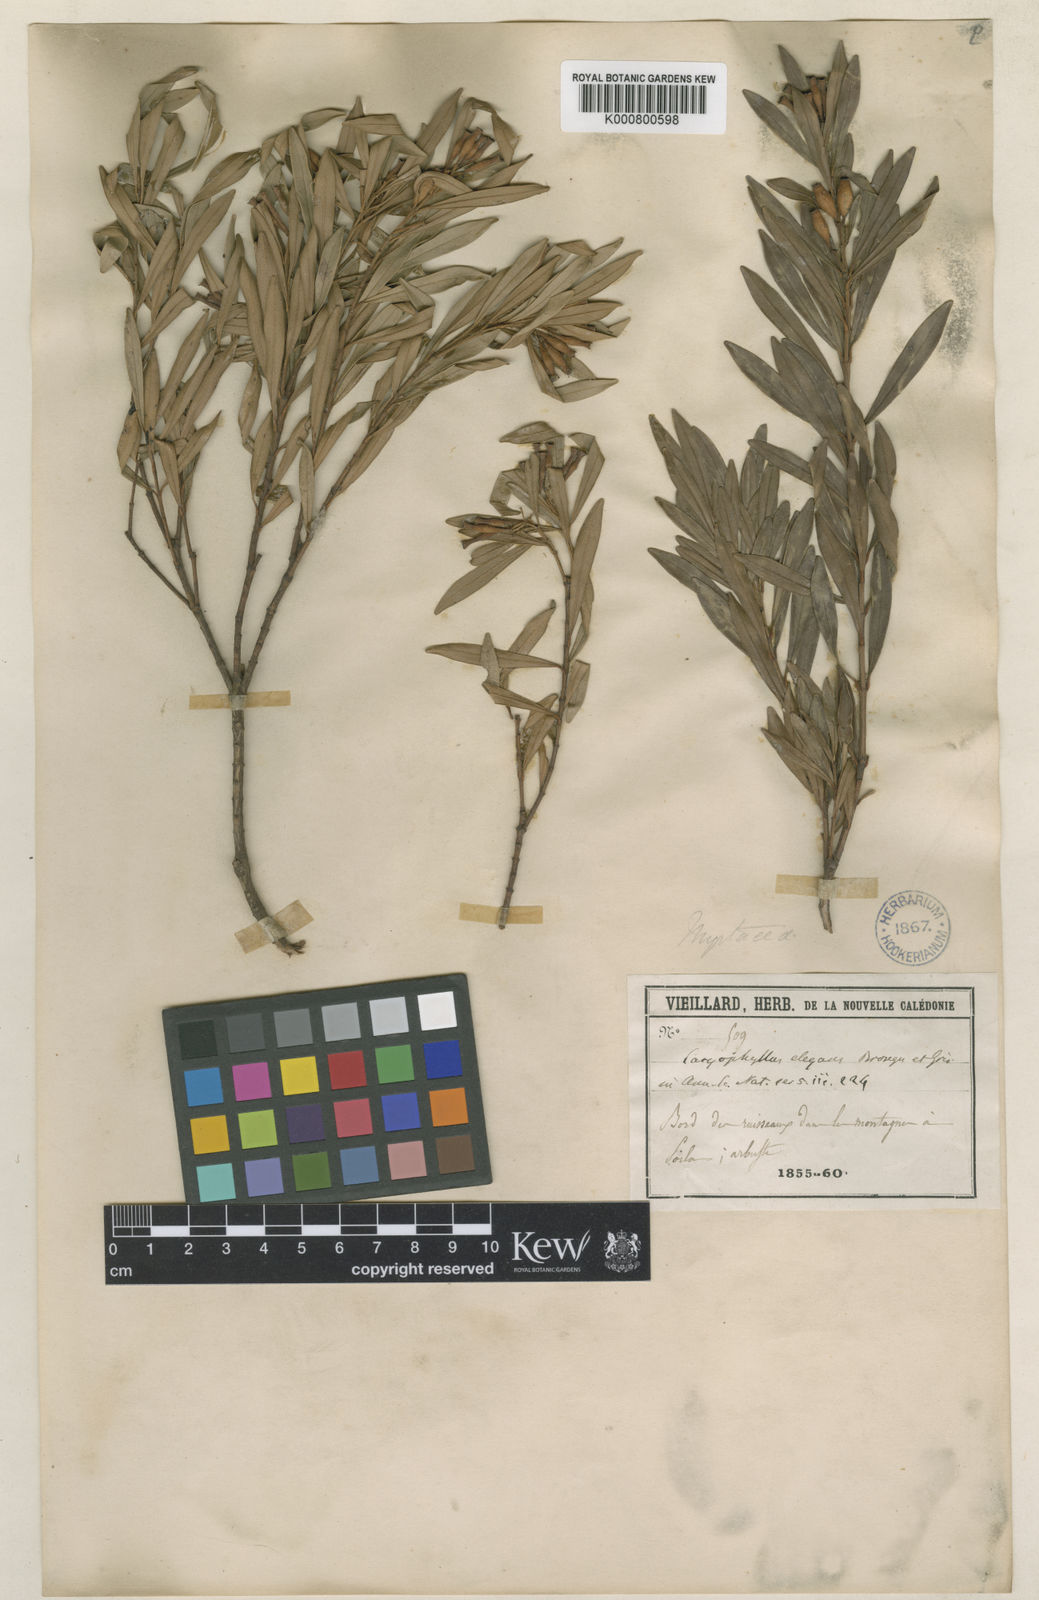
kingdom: Plantae
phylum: Tracheophyta
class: Magnoliopsida
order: Myrtales
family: Myrtaceae
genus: Syzygium
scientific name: Syzygium elegans
